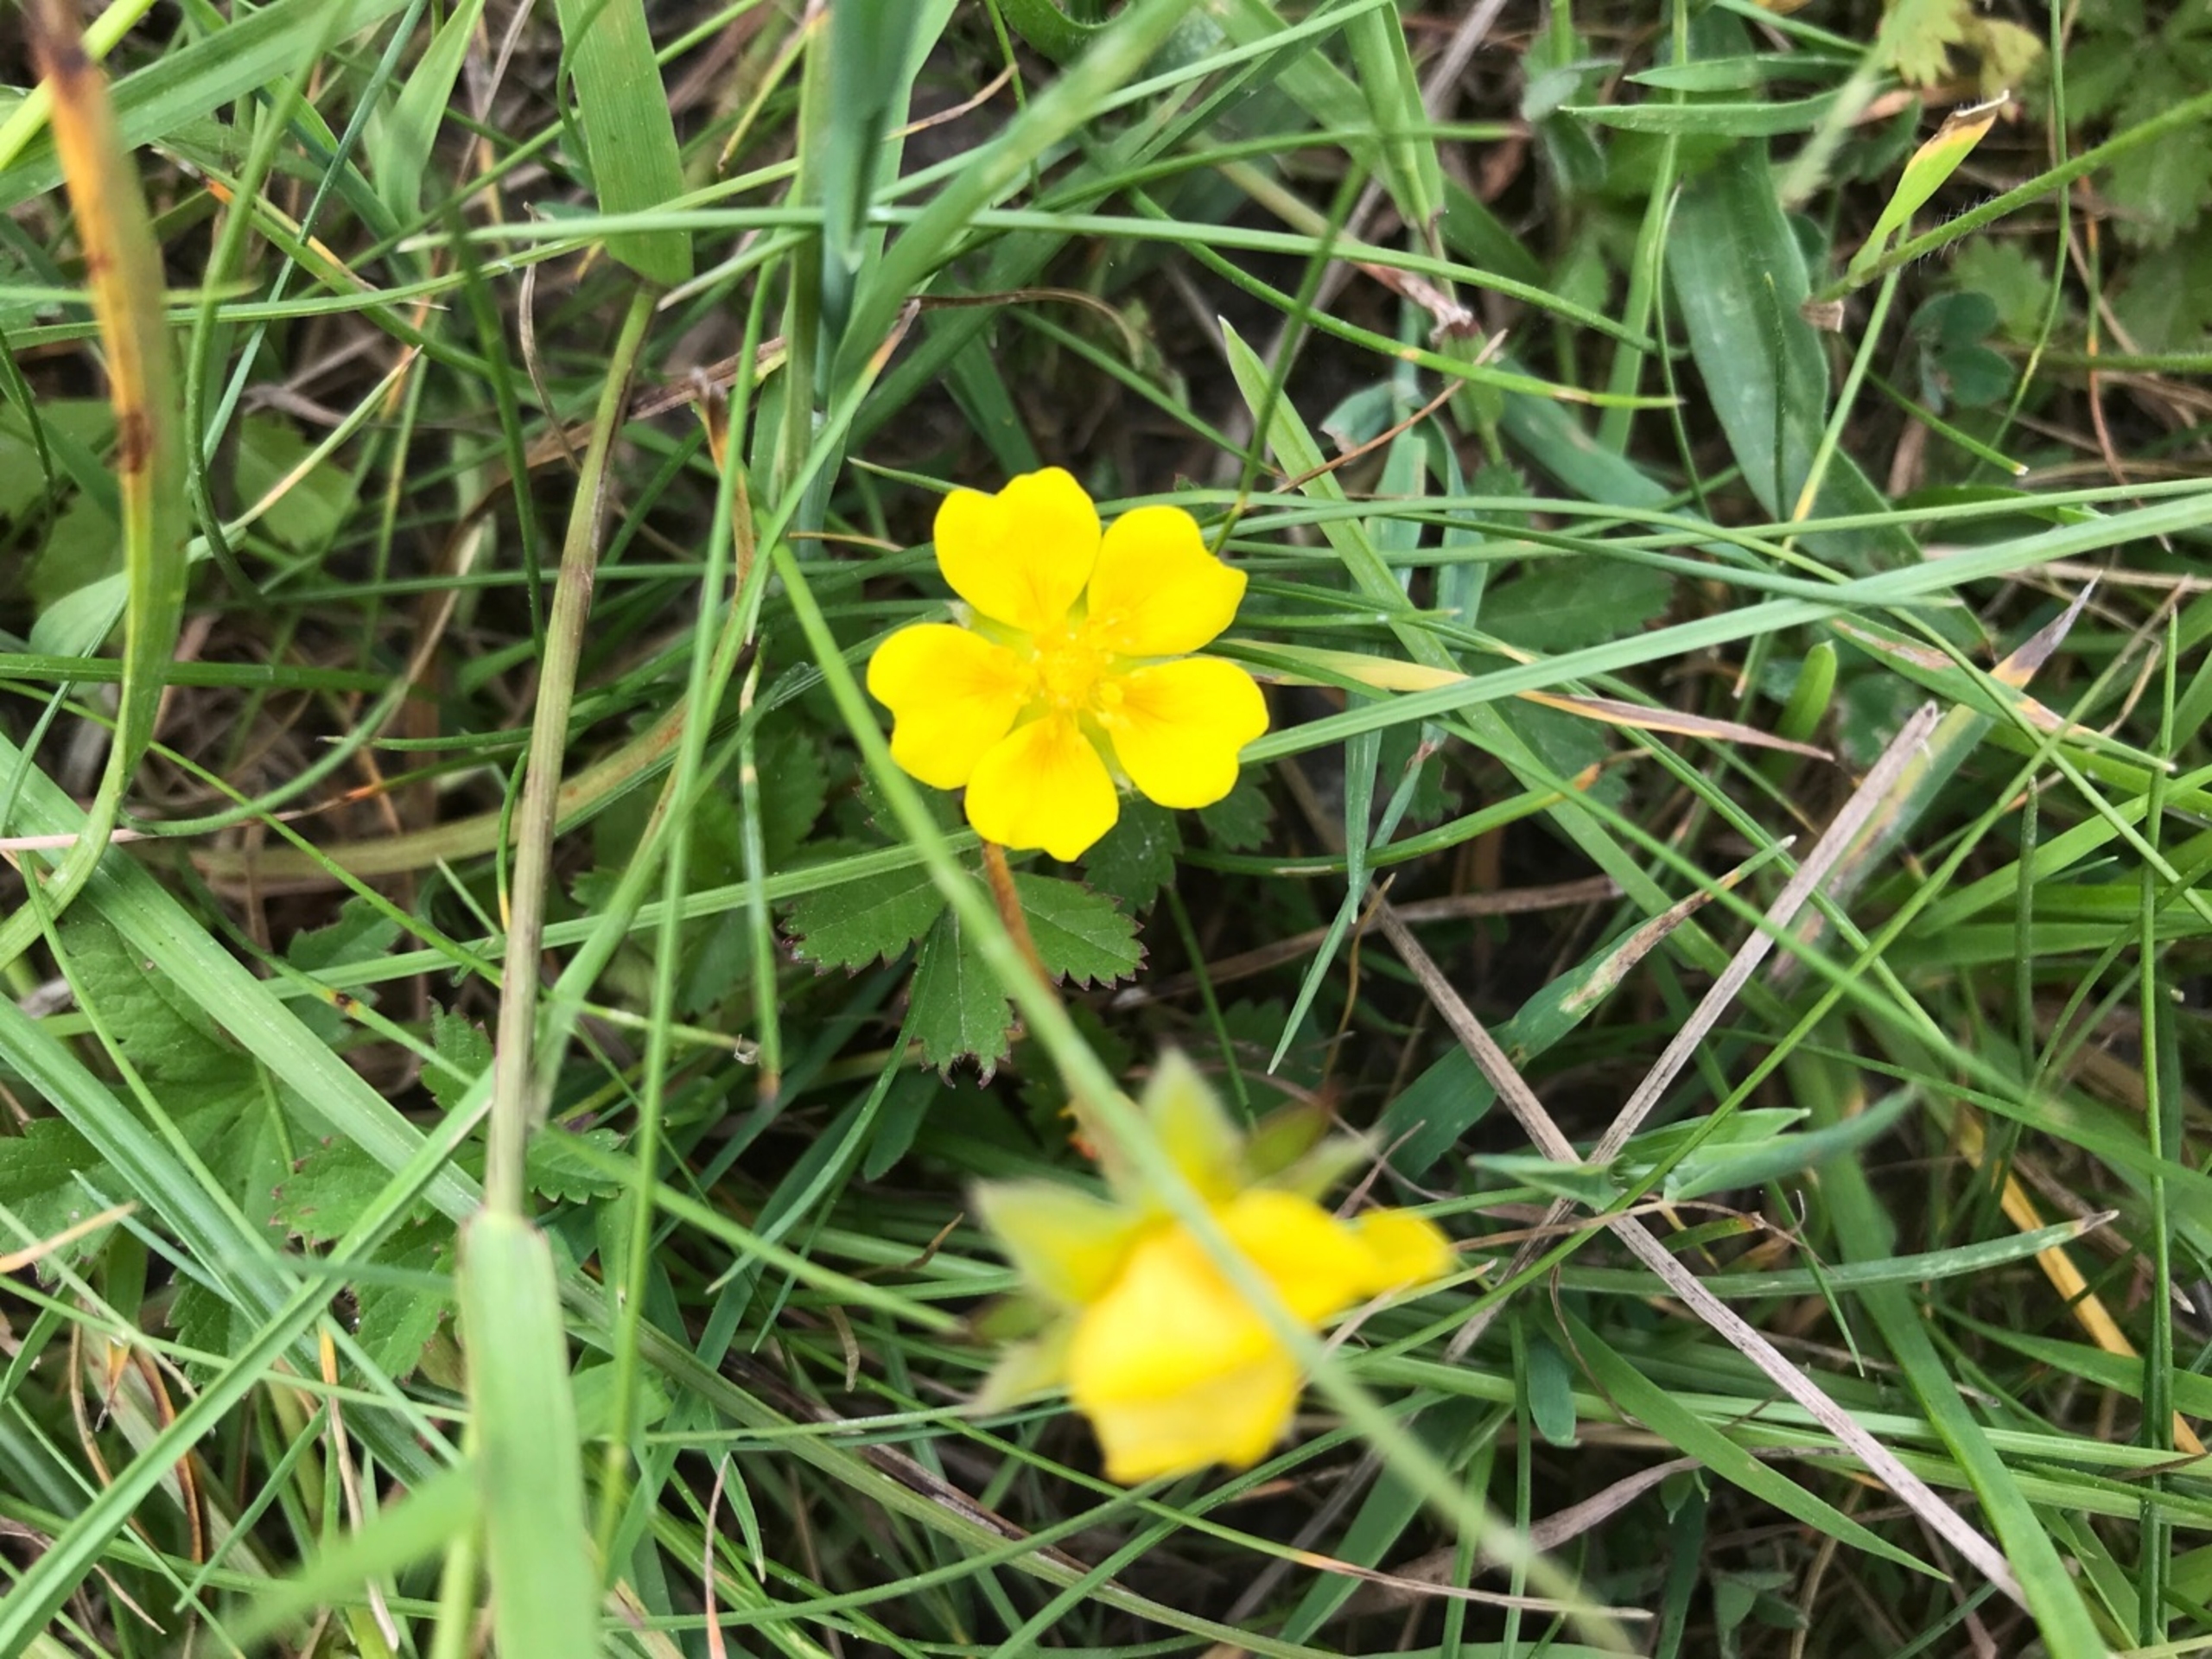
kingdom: Plantae
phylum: Tracheophyta
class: Magnoliopsida
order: Rosales
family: Rosaceae
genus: Potentilla
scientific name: Potentilla reptans
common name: Krybende potentil
